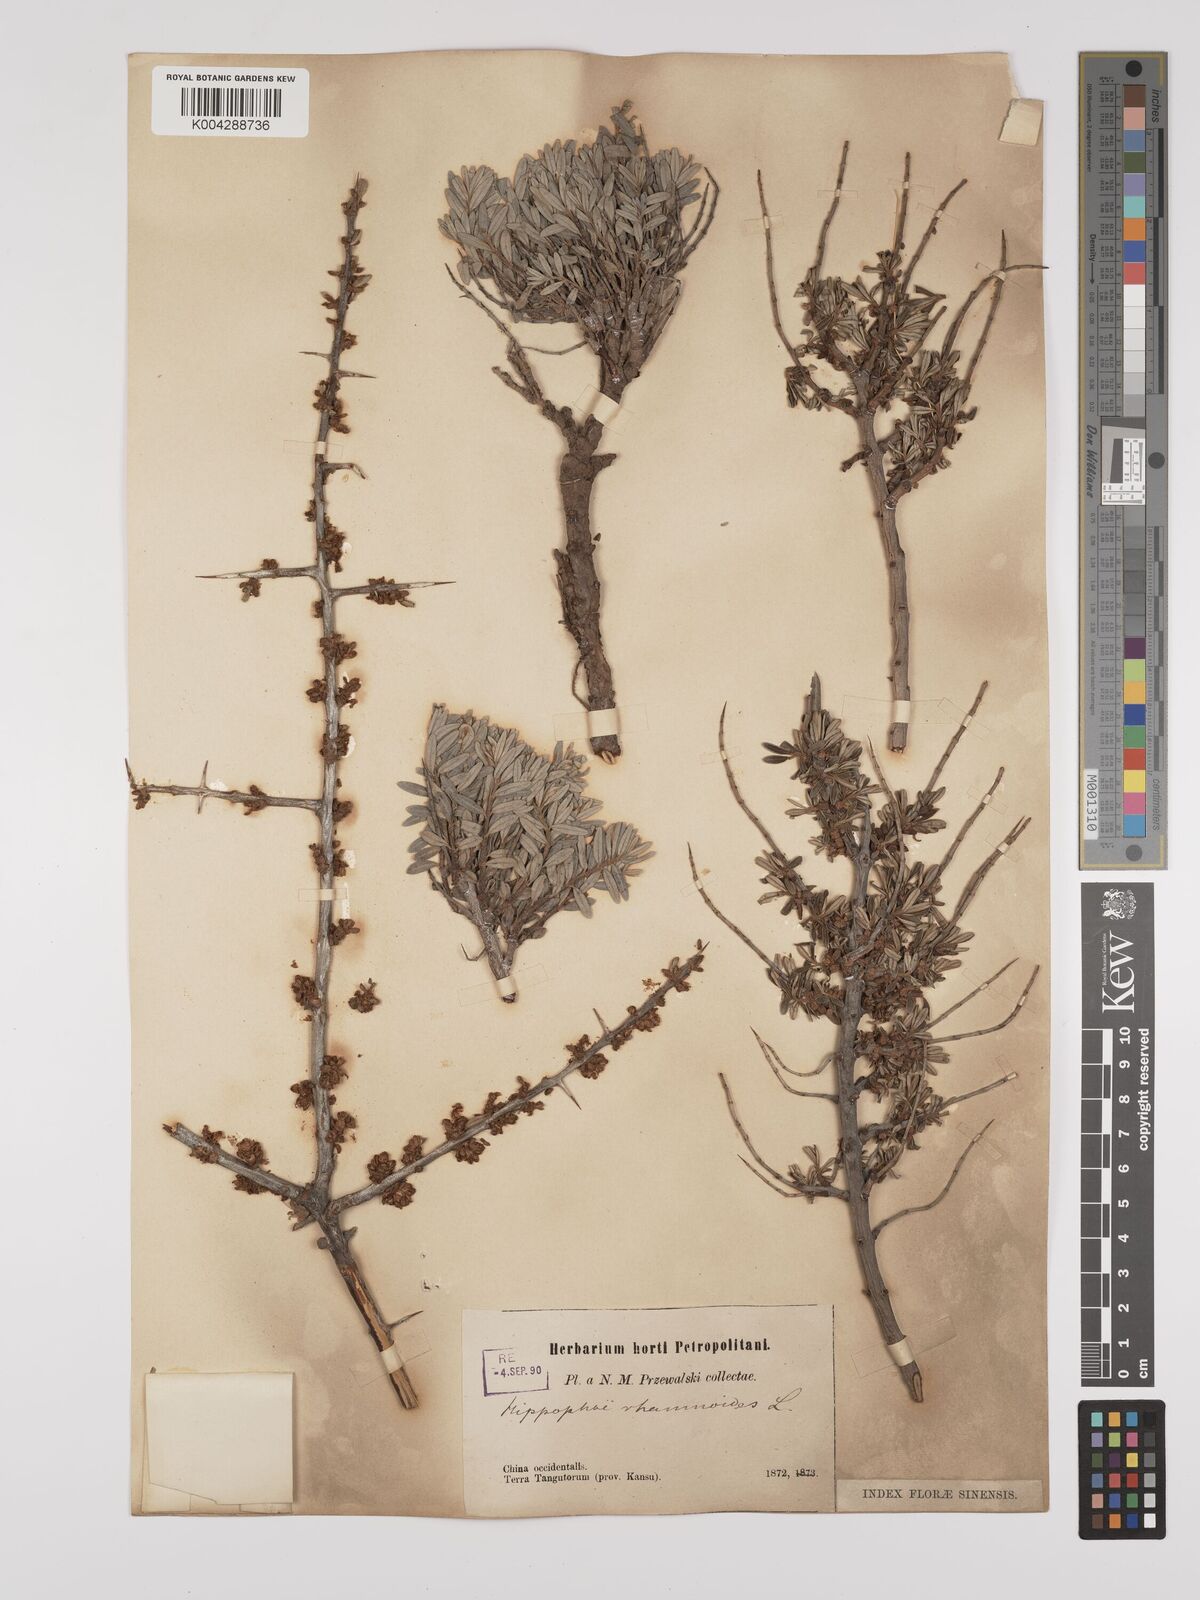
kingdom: Plantae
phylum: Tracheophyta
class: Magnoliopsida
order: Rosales
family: Elaeagnaceae
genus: Hippophae
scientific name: Hippophae rhamnoides
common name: Sea-buckthorn
